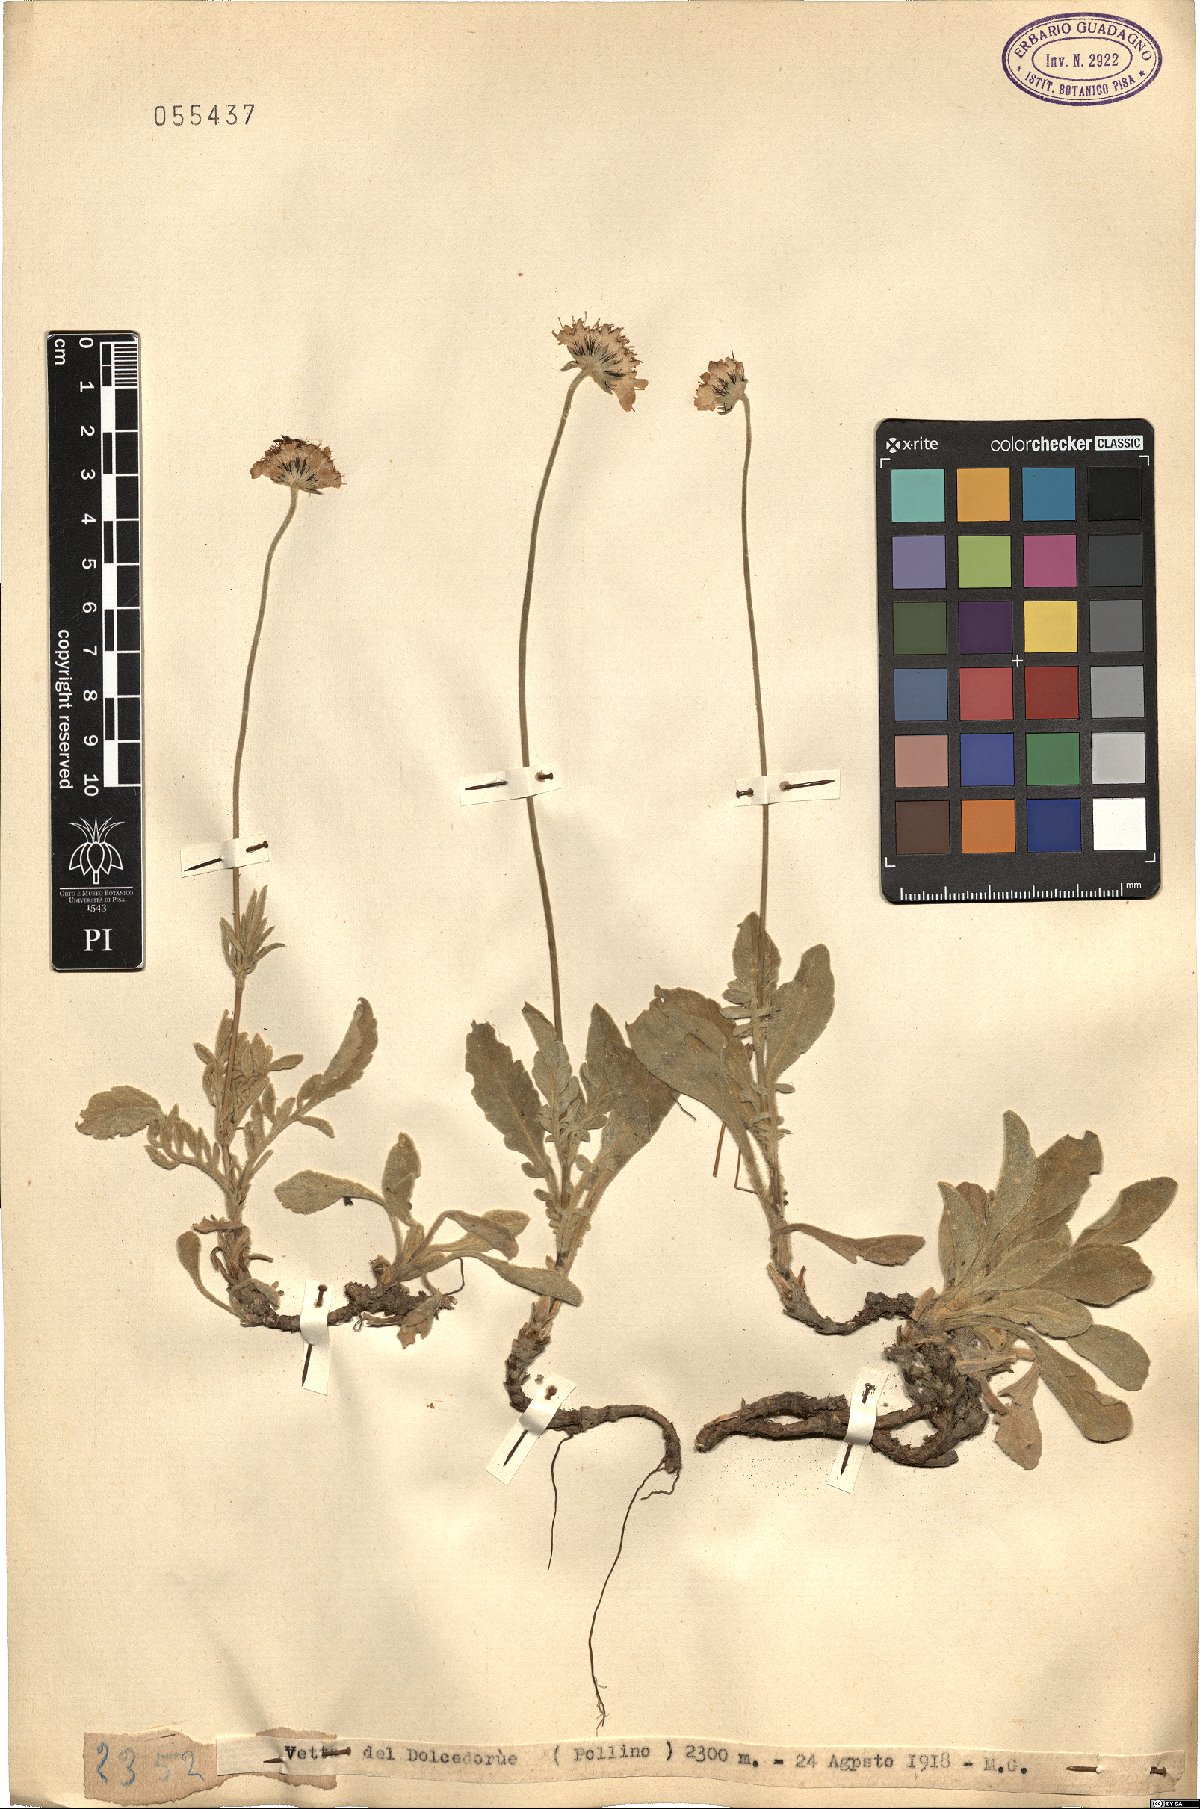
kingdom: Plantae
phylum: Tracheophyta
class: Magnoliopsida
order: Dipsacales
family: Caprifoliaceae
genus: Scabiosa
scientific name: Scabiosa
